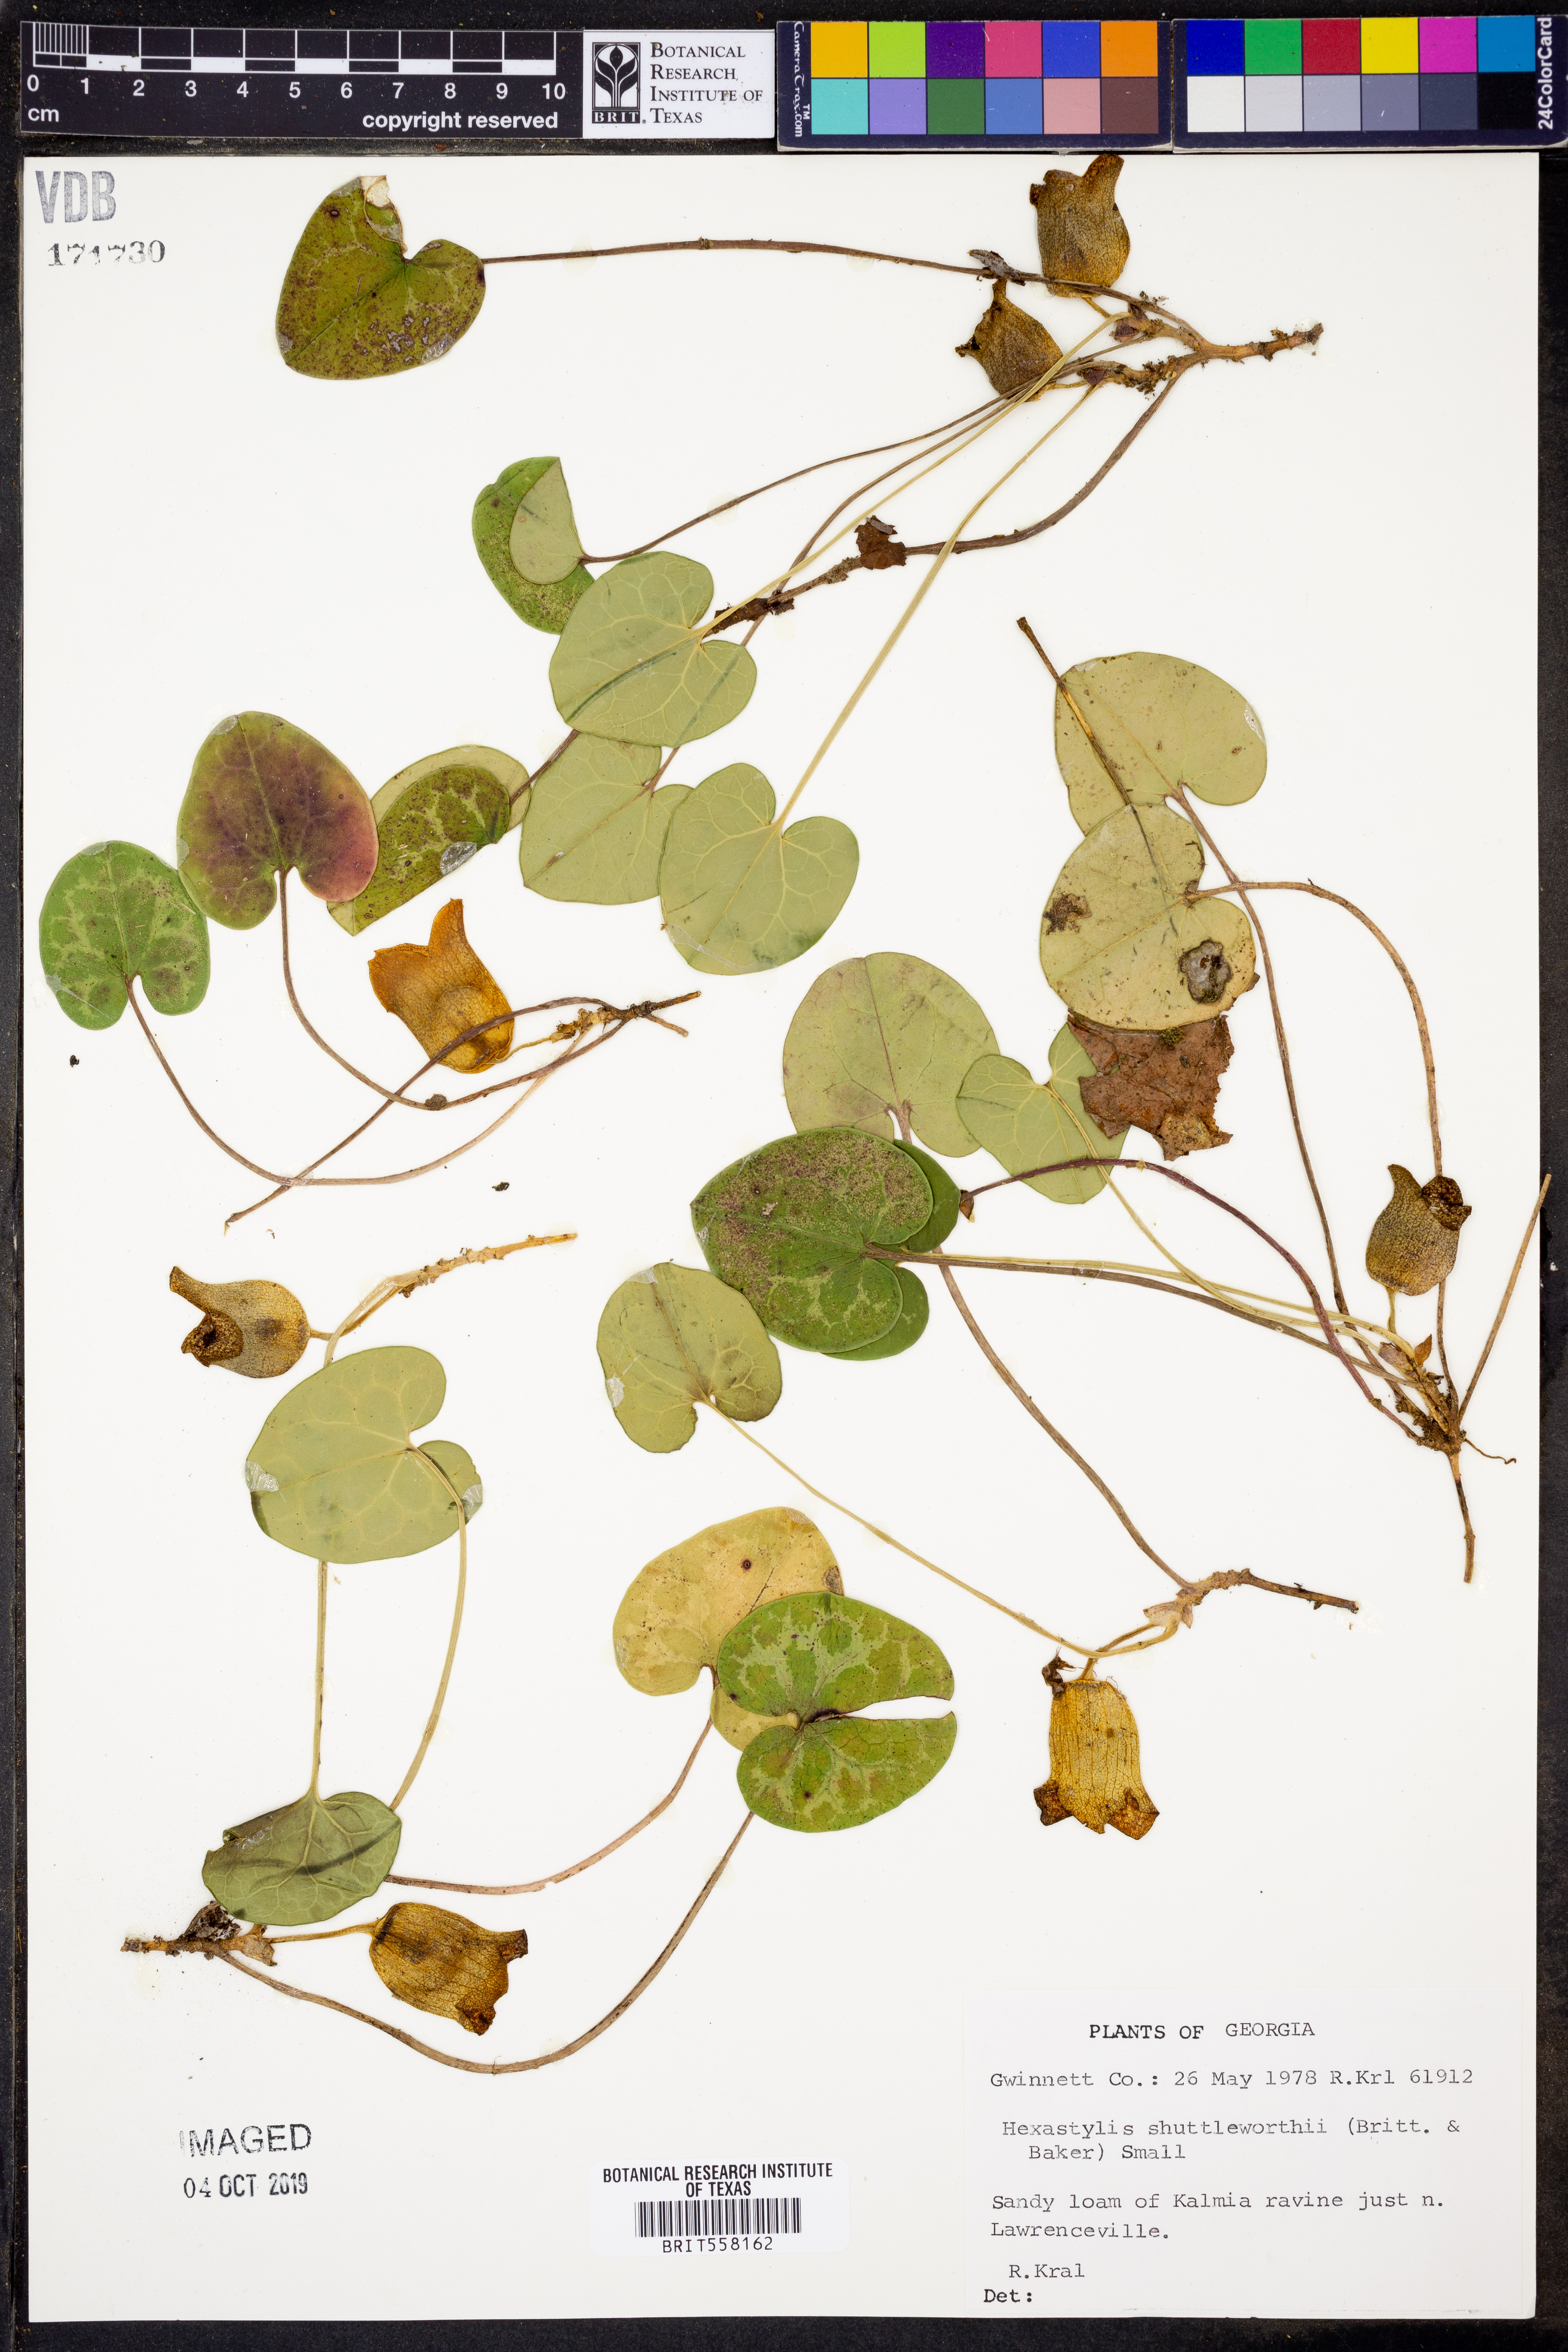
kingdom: Plantae
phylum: Tracheophyta
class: Magnoliopsida
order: Piperales
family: Aristolochiaceae
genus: Hexastylis
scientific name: Hexastylis shuttleworthii
